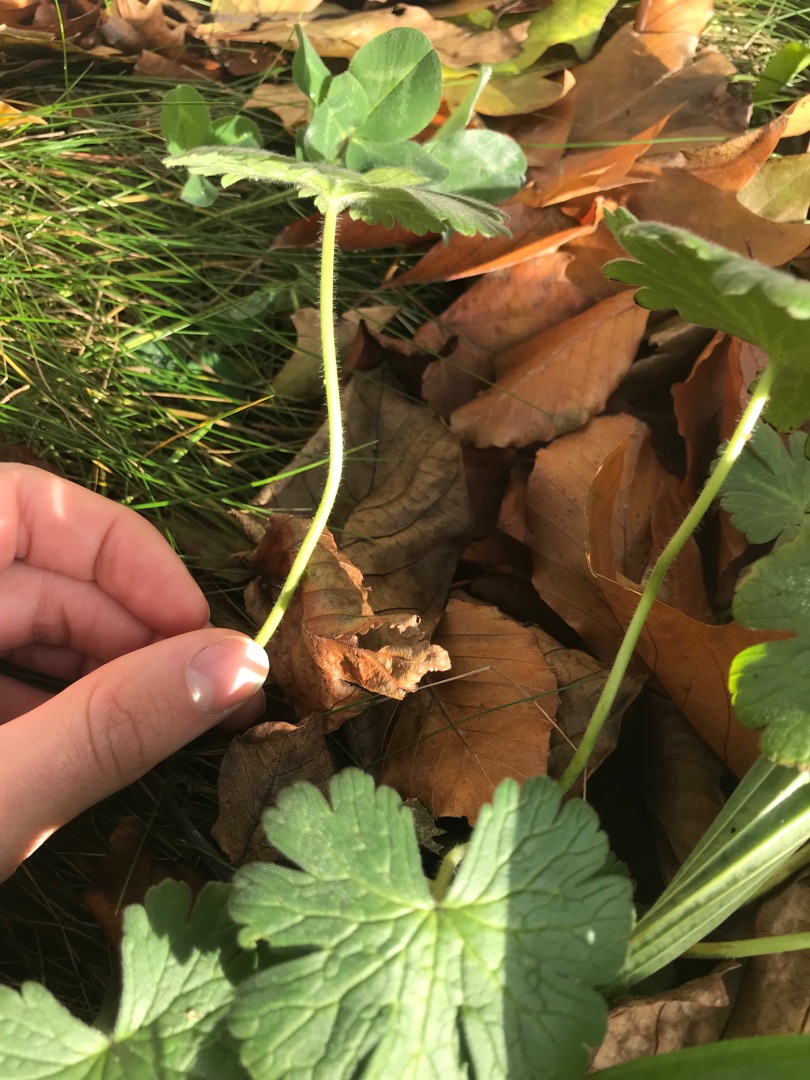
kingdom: Plantae
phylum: Tracheophyta
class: Magnoliopsida
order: Geraniales
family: Geraniaceae
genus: Geranium
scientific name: Geranium
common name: Storkenæbslægten
